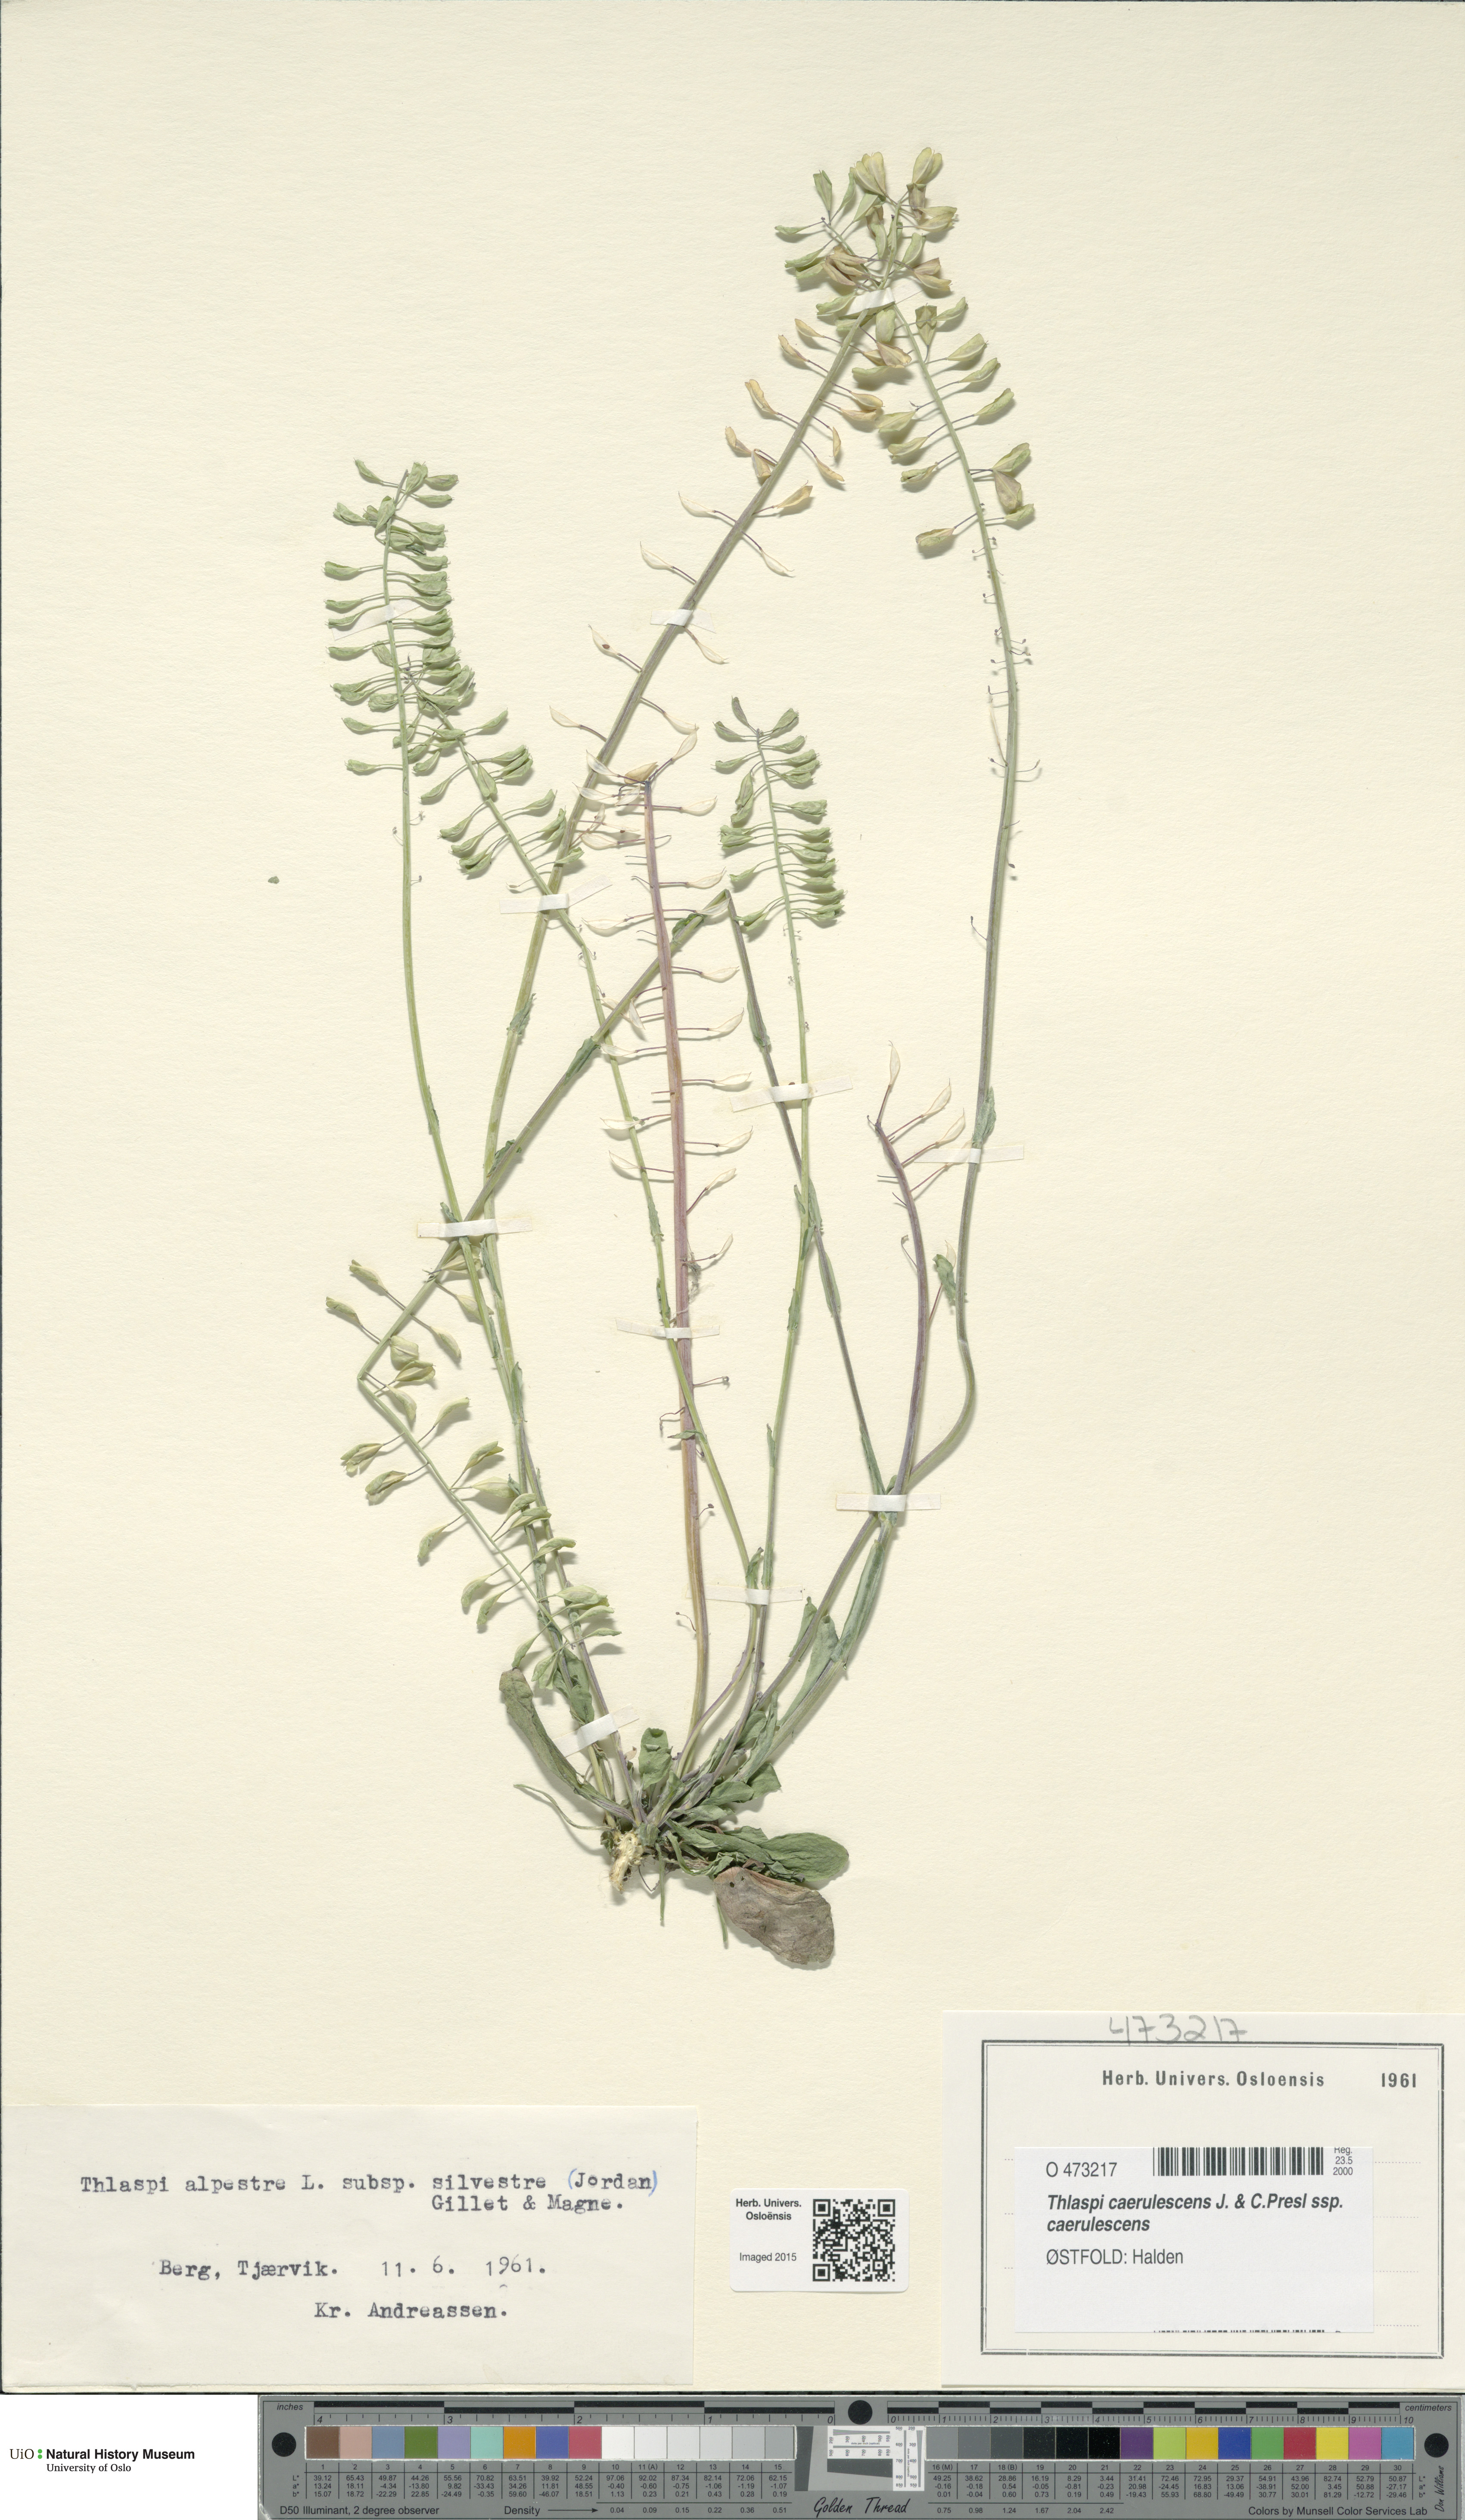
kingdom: Plantae
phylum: Tracheophyta
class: Magnoliopsida
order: Brassicales
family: Brassicaceae
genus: Noccaea
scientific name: Noccaea caerulescens
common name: Alpine pennycress
